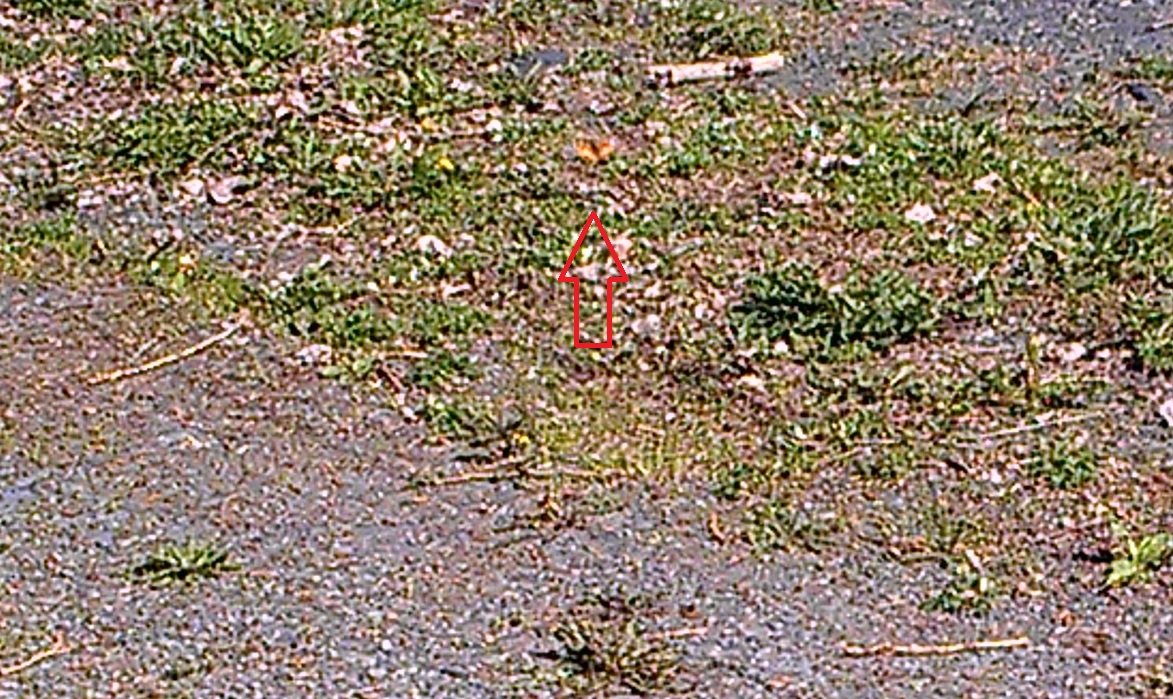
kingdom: Animalia
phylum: Arthropoda
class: Insecta
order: Lepidoptera
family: Nymphalidae
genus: Vanessa
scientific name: Vanessa virginiensis
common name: American Lady
